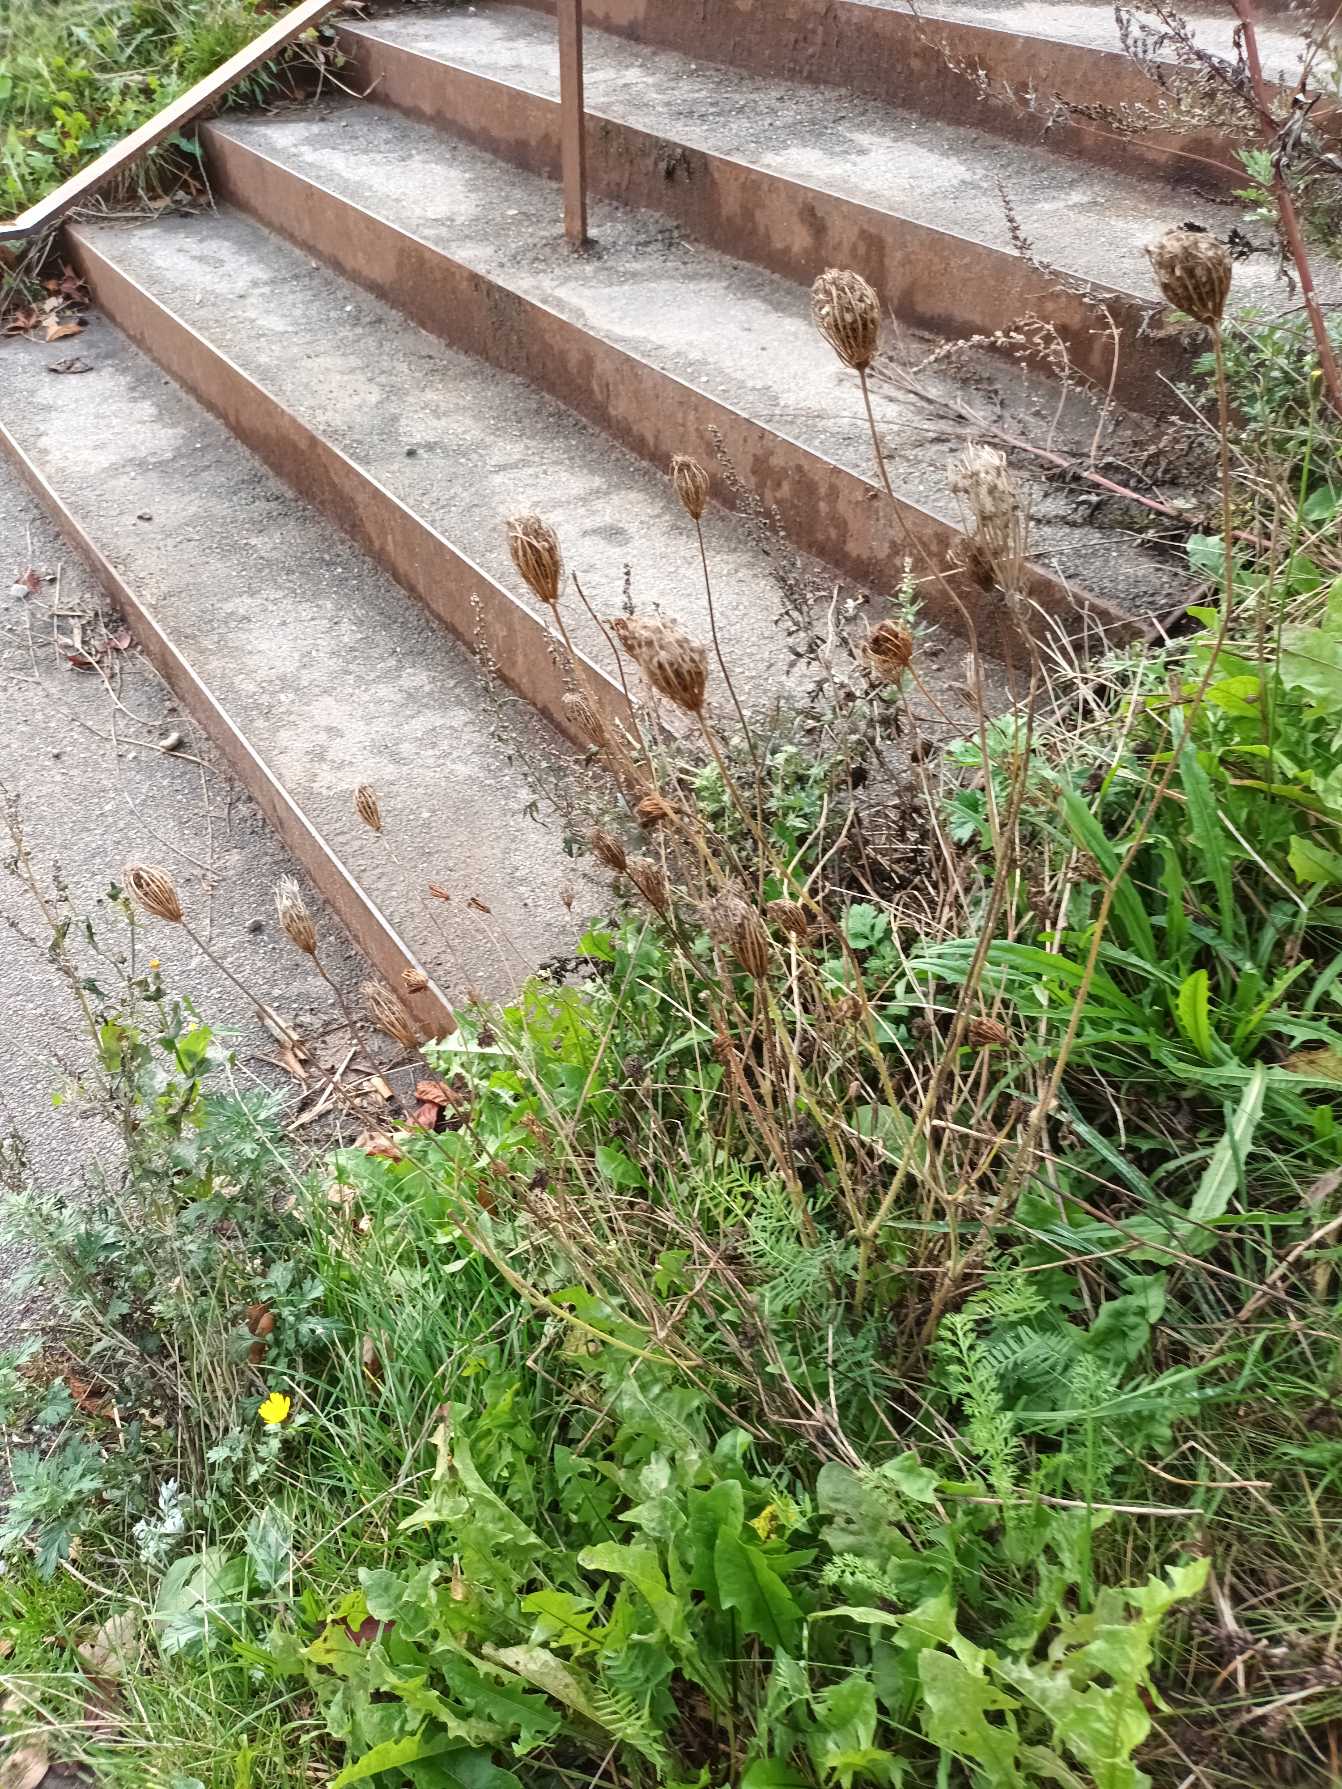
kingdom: Plantae
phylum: Tracheophyta
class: Magnoliopsida
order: Apiales
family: Apiaceae
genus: Daucus
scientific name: Daucus carota
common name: Gulerod
